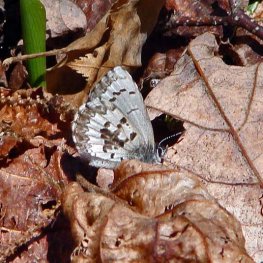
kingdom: Animalia
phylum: Arthropoda
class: Insecta
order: Lepidoptera
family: Lycaenidae
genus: Celastrina
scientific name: Celastrina lucia
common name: Northern Spring Azure
